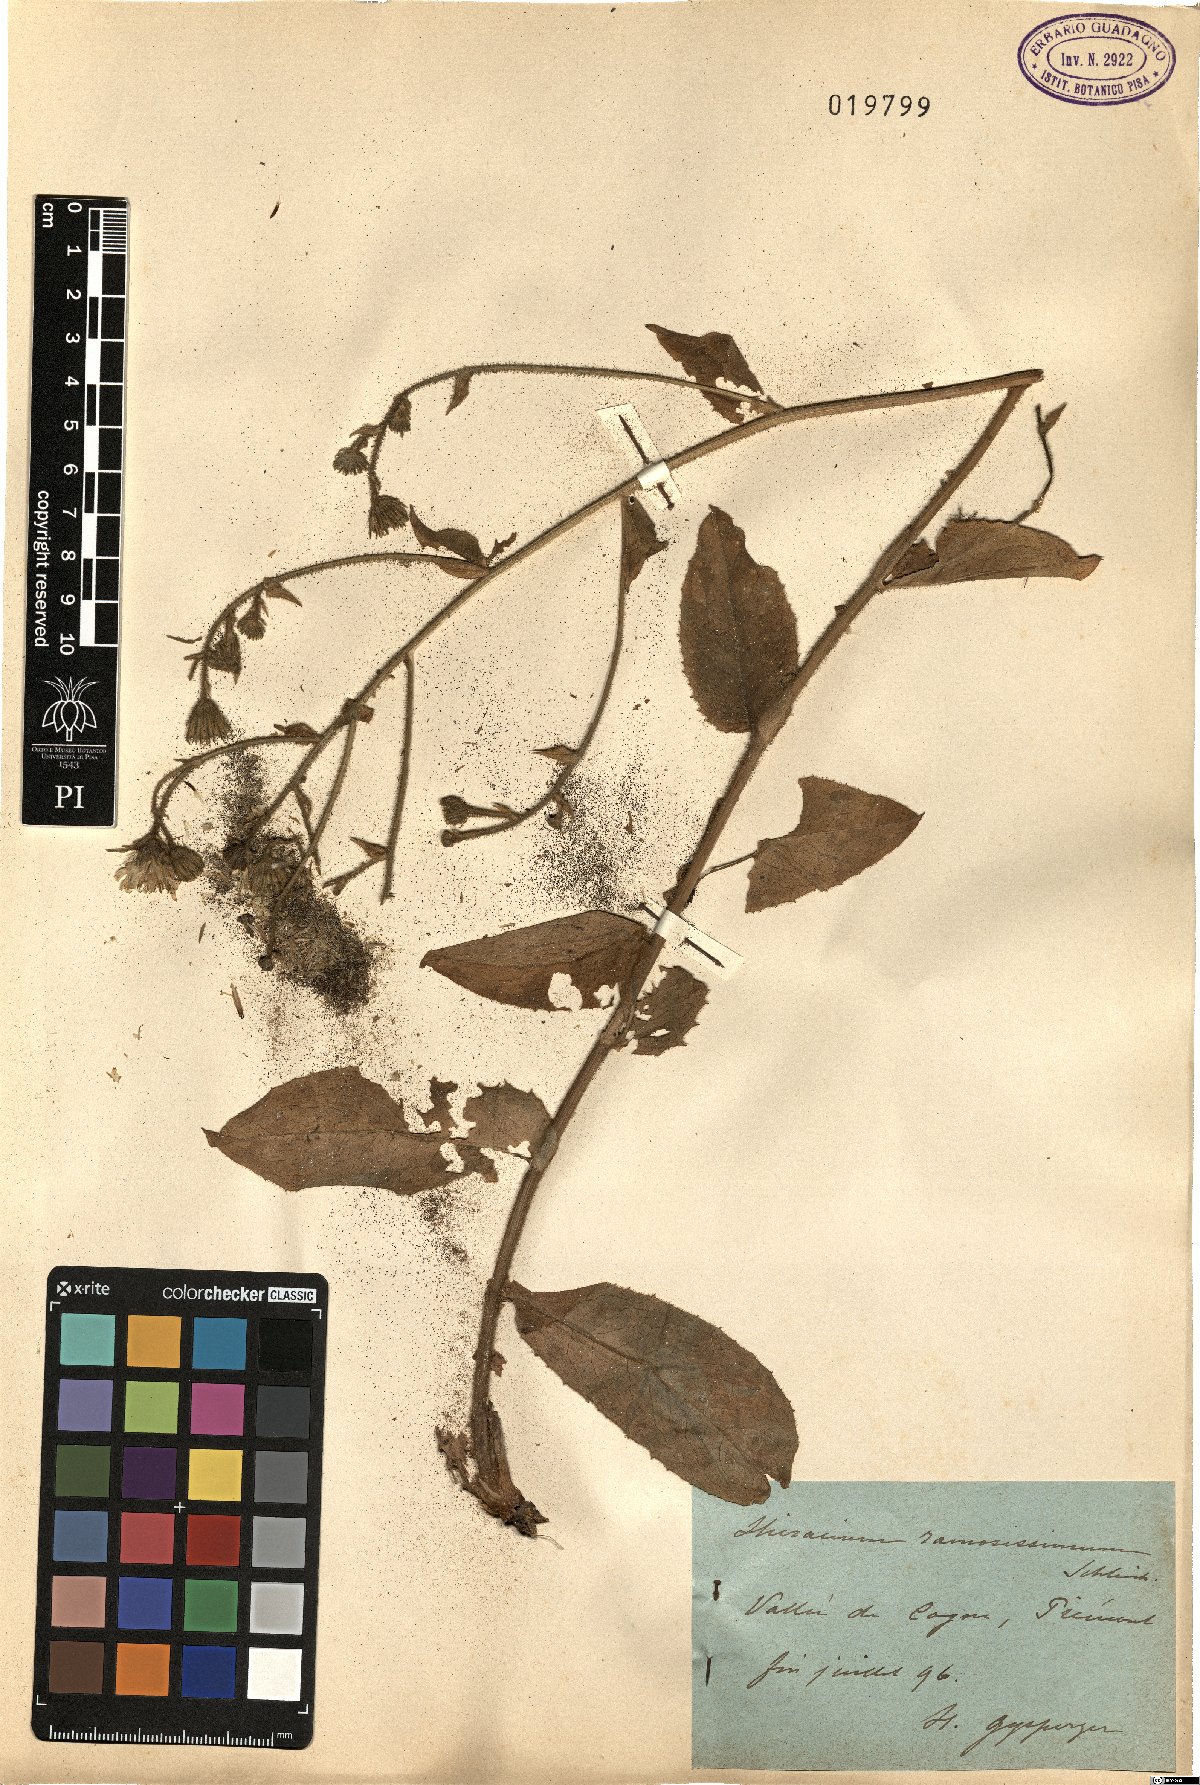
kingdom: Plantae
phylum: Tracheophyta
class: Magnoliopsida
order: Asterales
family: Asteraceae
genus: Hieracium
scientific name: Hieracium ramosissimum
